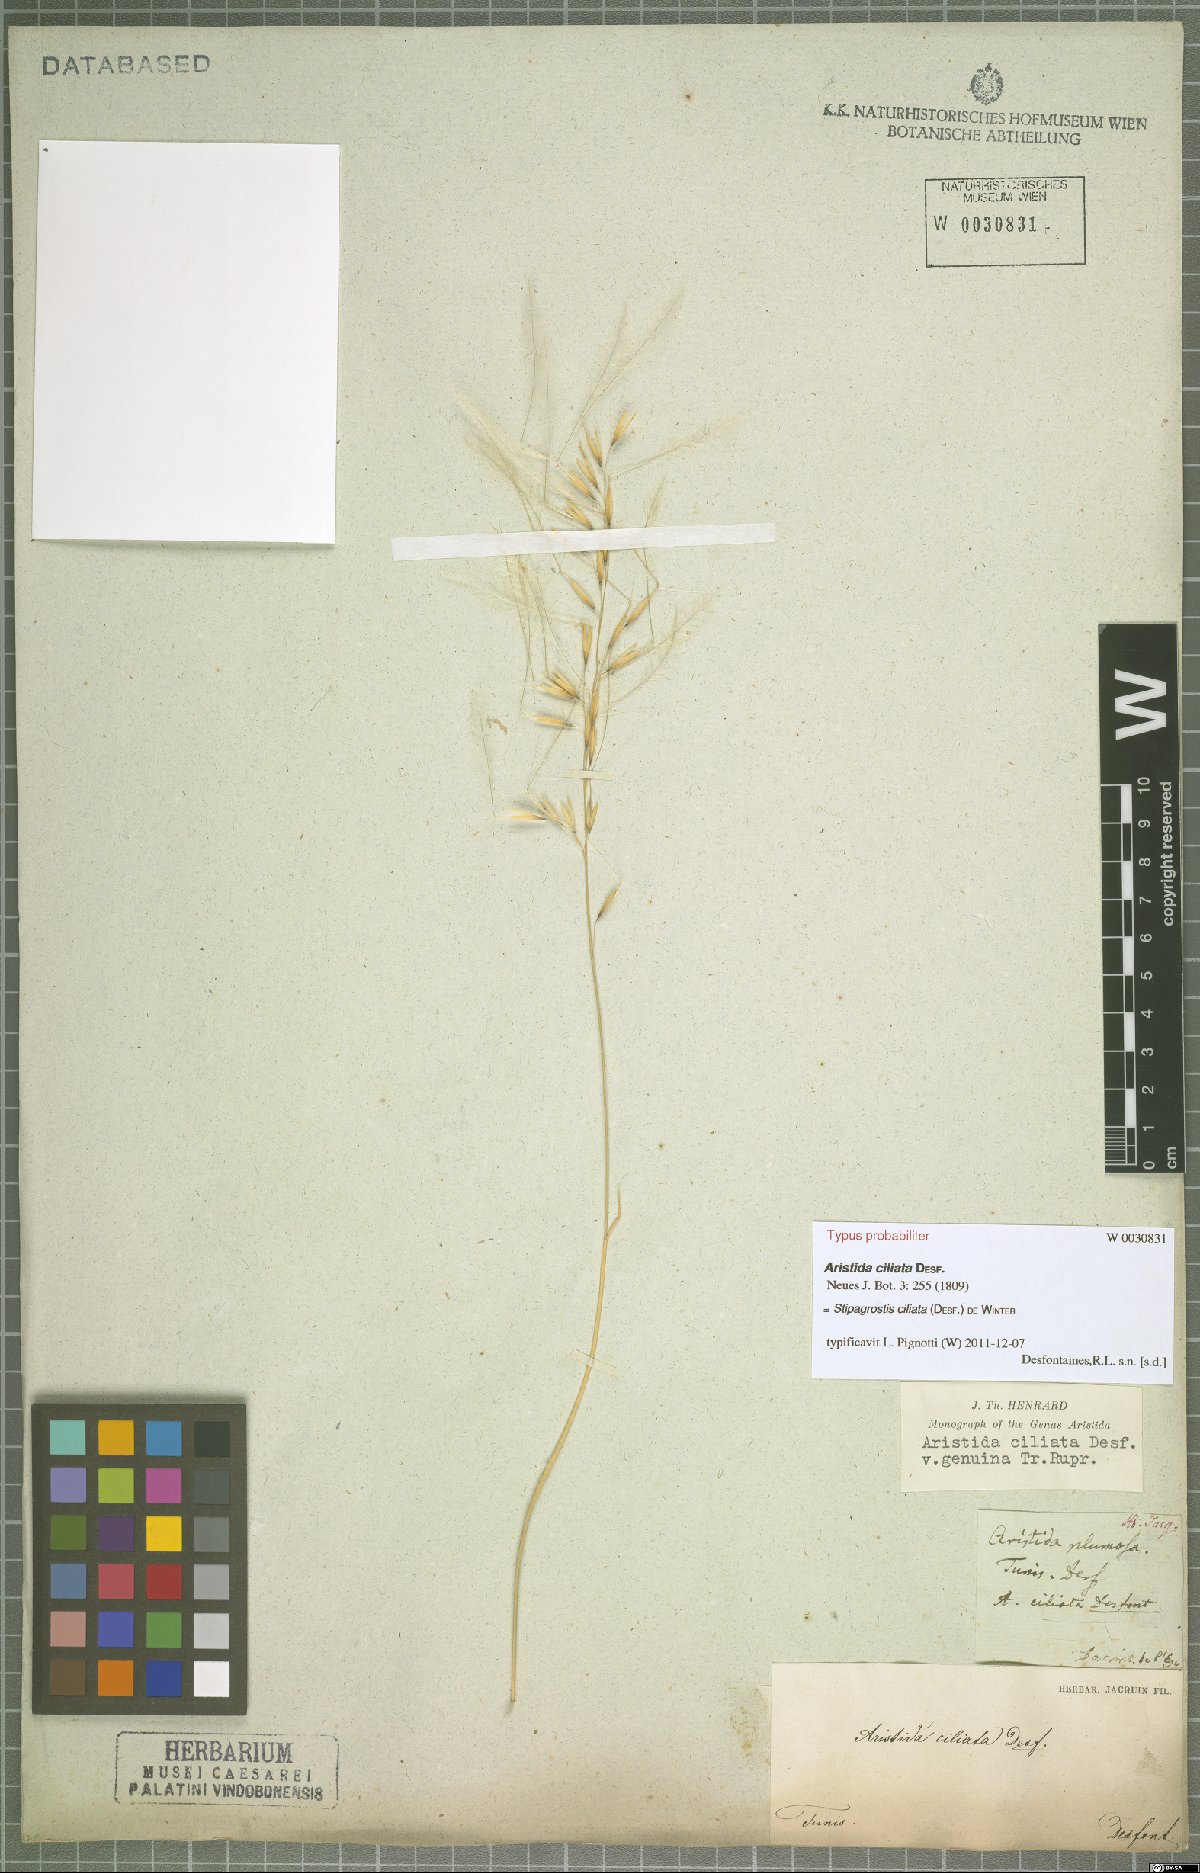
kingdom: Plantae
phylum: Tracheophyta
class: Liliopsida
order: Poales
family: Poaceae
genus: Stipagrostis
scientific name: Stipagrostis ciliata
